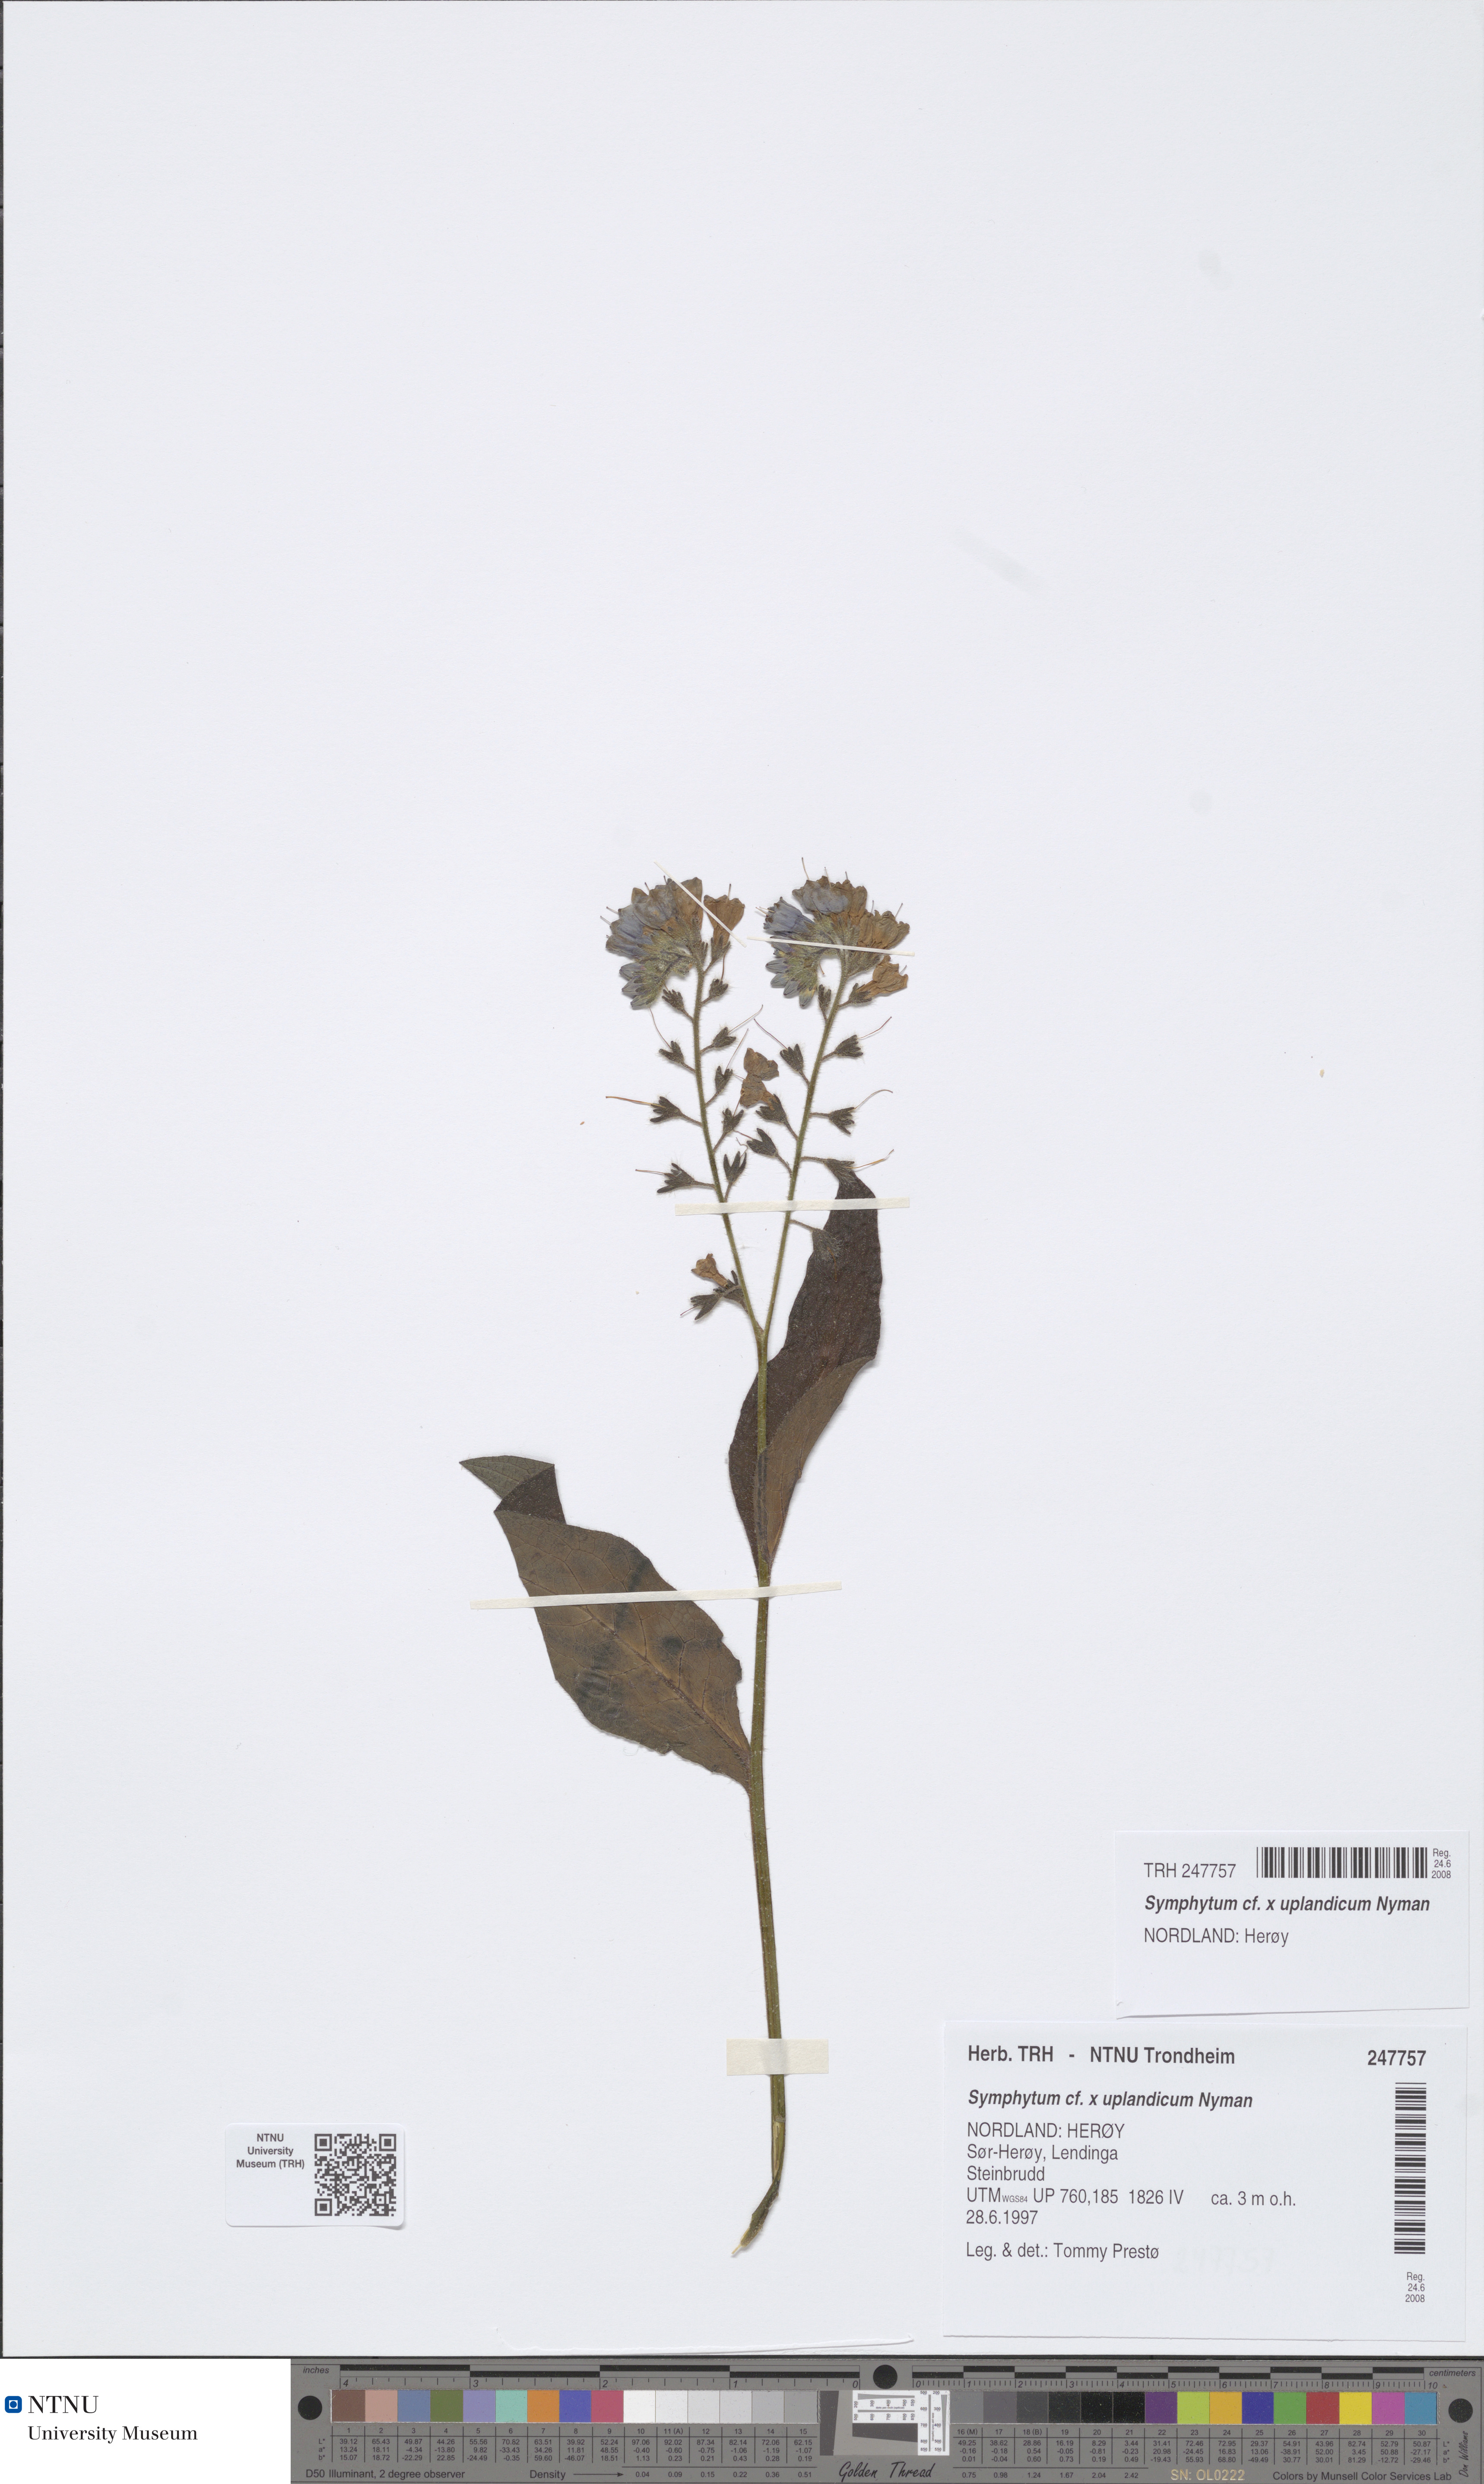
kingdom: Plantae
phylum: Tracheophyta
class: Magnoliopsida
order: Boraginales
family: Boraginaceae
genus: Symphytum
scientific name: Symphytum uplandicum
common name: Russian comfrey
